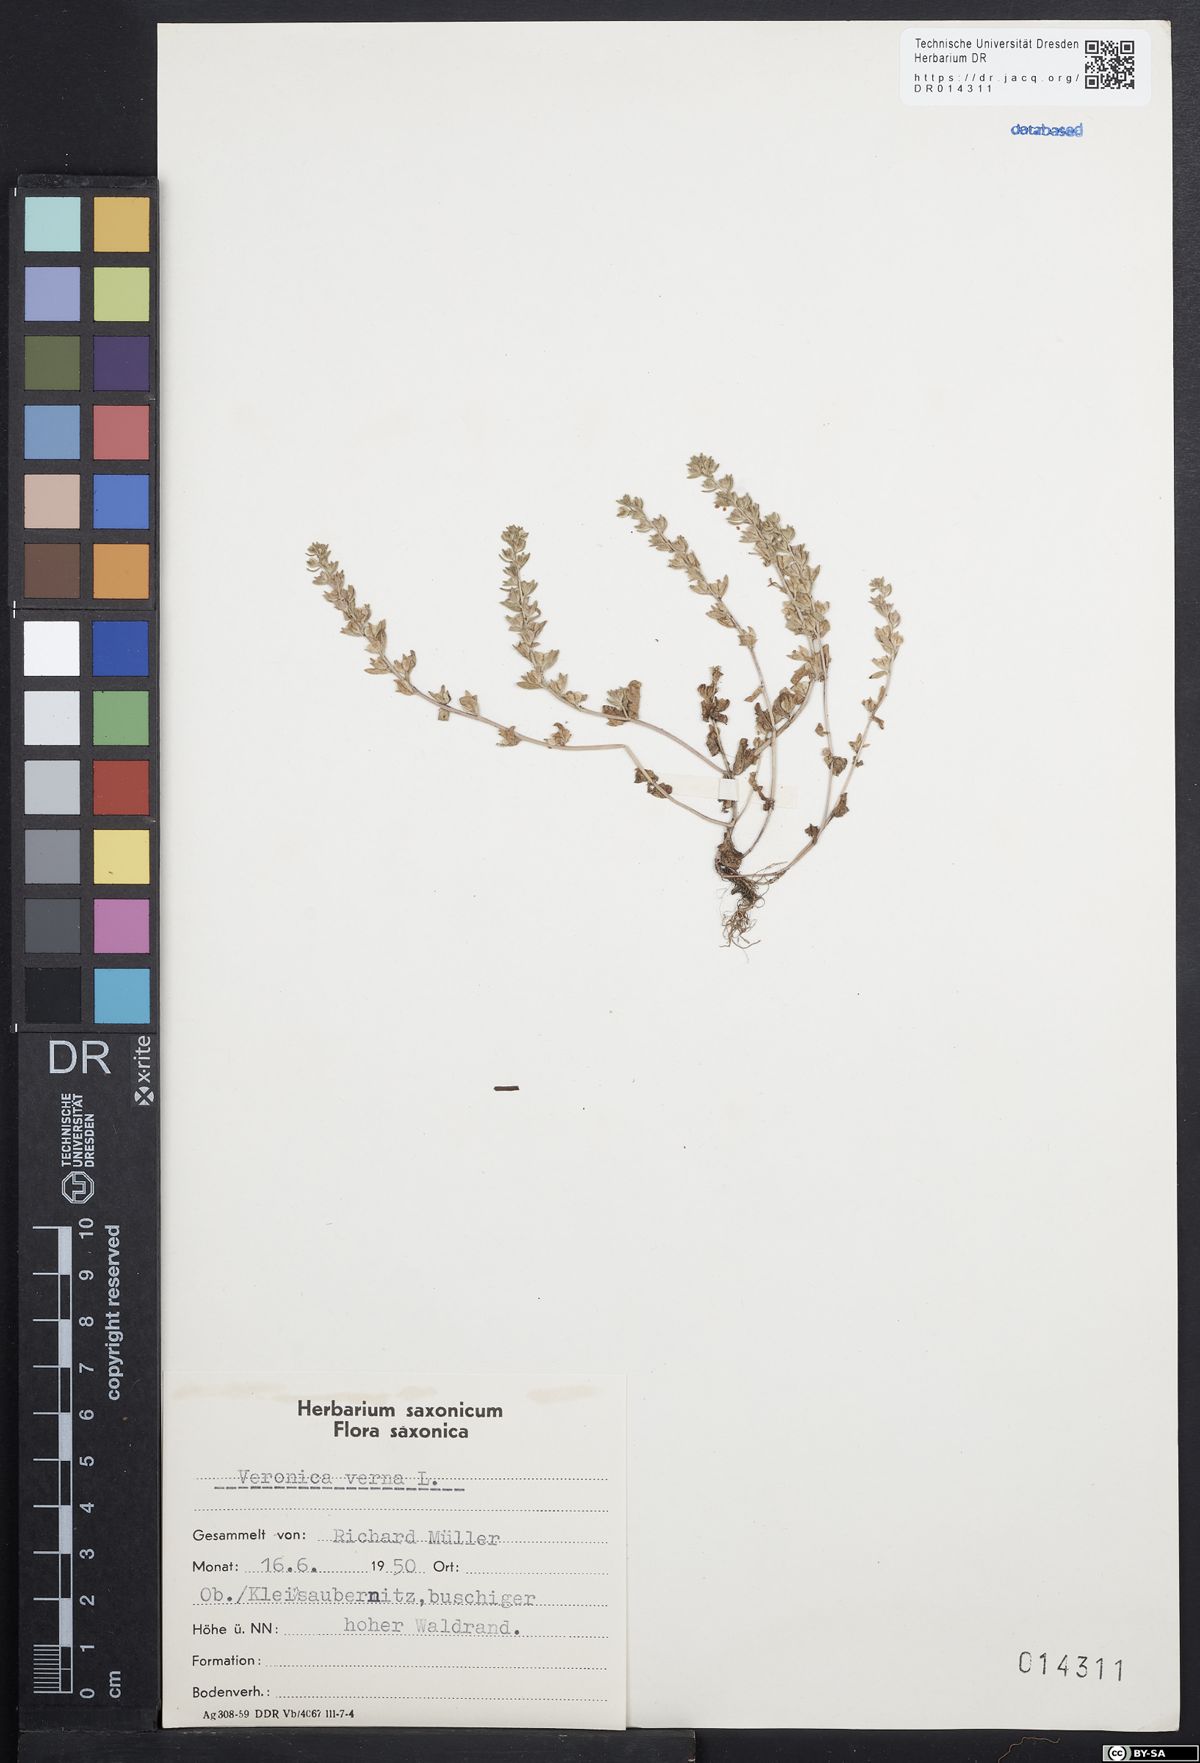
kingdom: Plantae
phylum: Tracheophyta
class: Magnoliopsida
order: Lamiales
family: Plantaginaceae
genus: Veronica
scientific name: Veronica verna
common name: Spring speedwell
